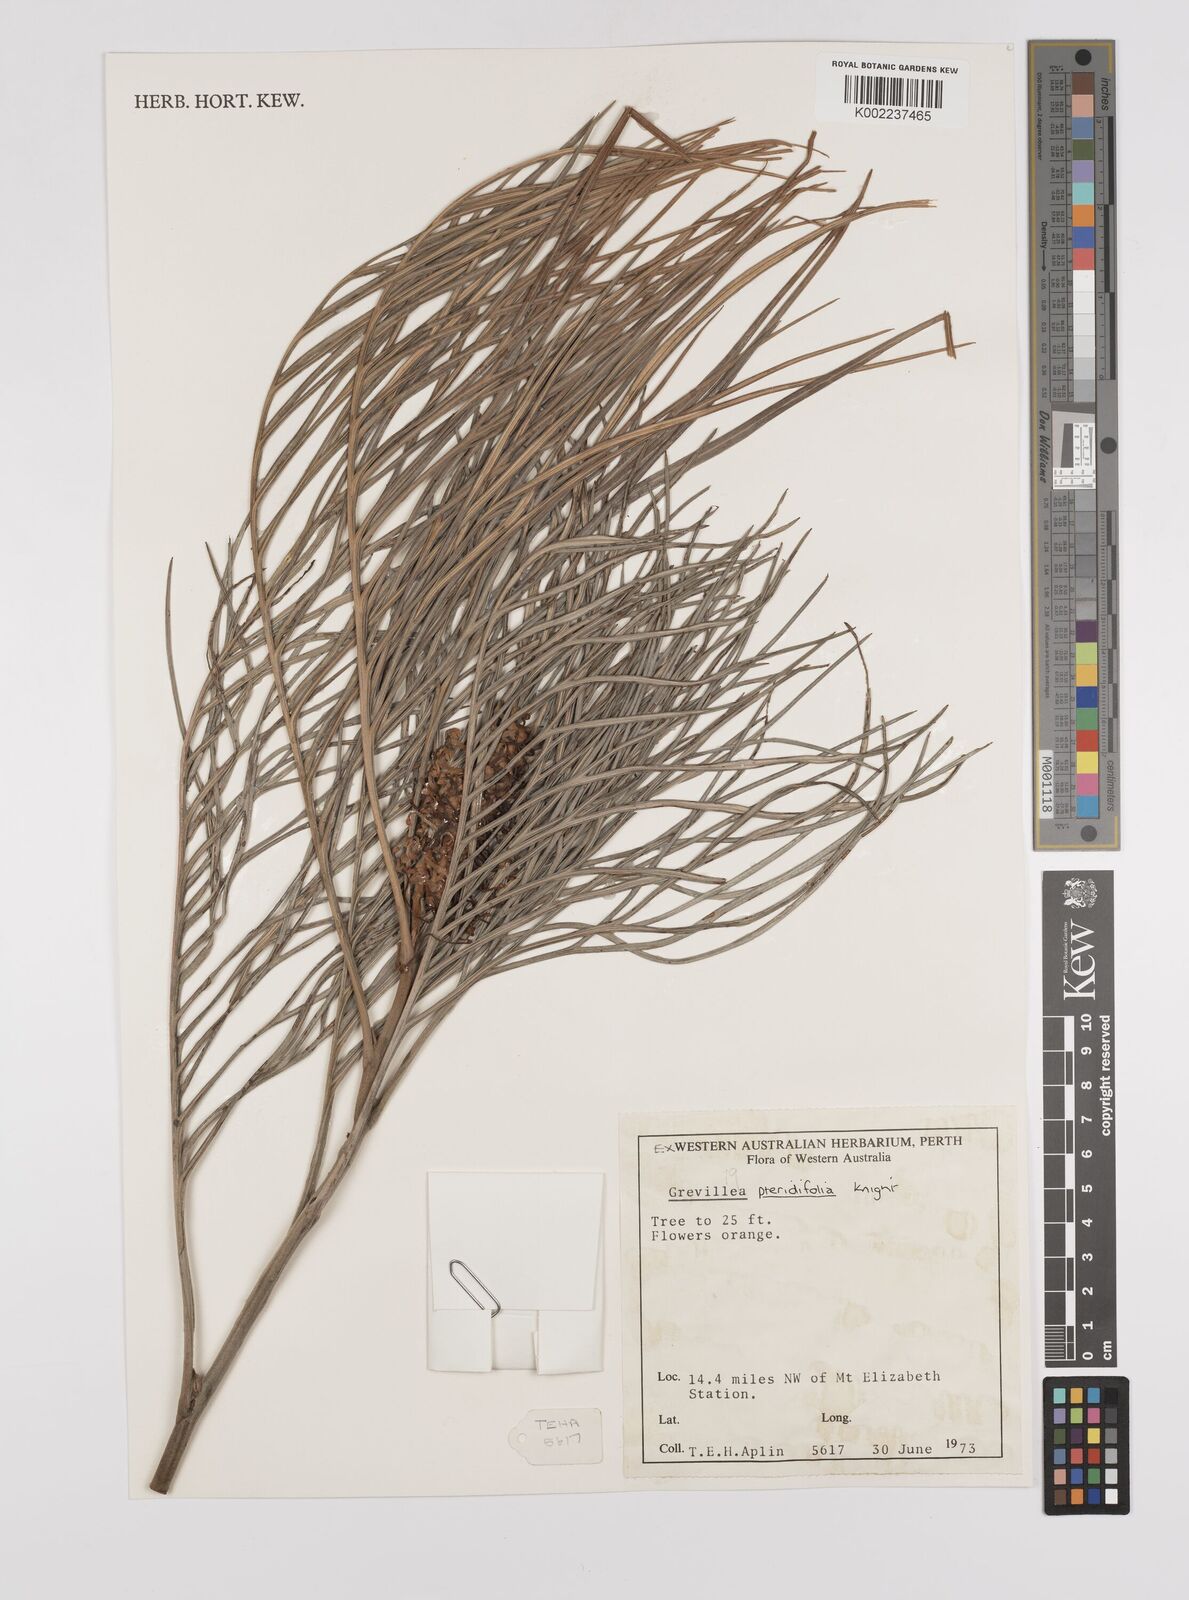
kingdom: Plantae
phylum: Tracheophyta
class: Magnoliopsida
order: Proteales
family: Proteaceae
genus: Grevillea
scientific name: Grevillea pteridifolia
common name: Golden grevillea
